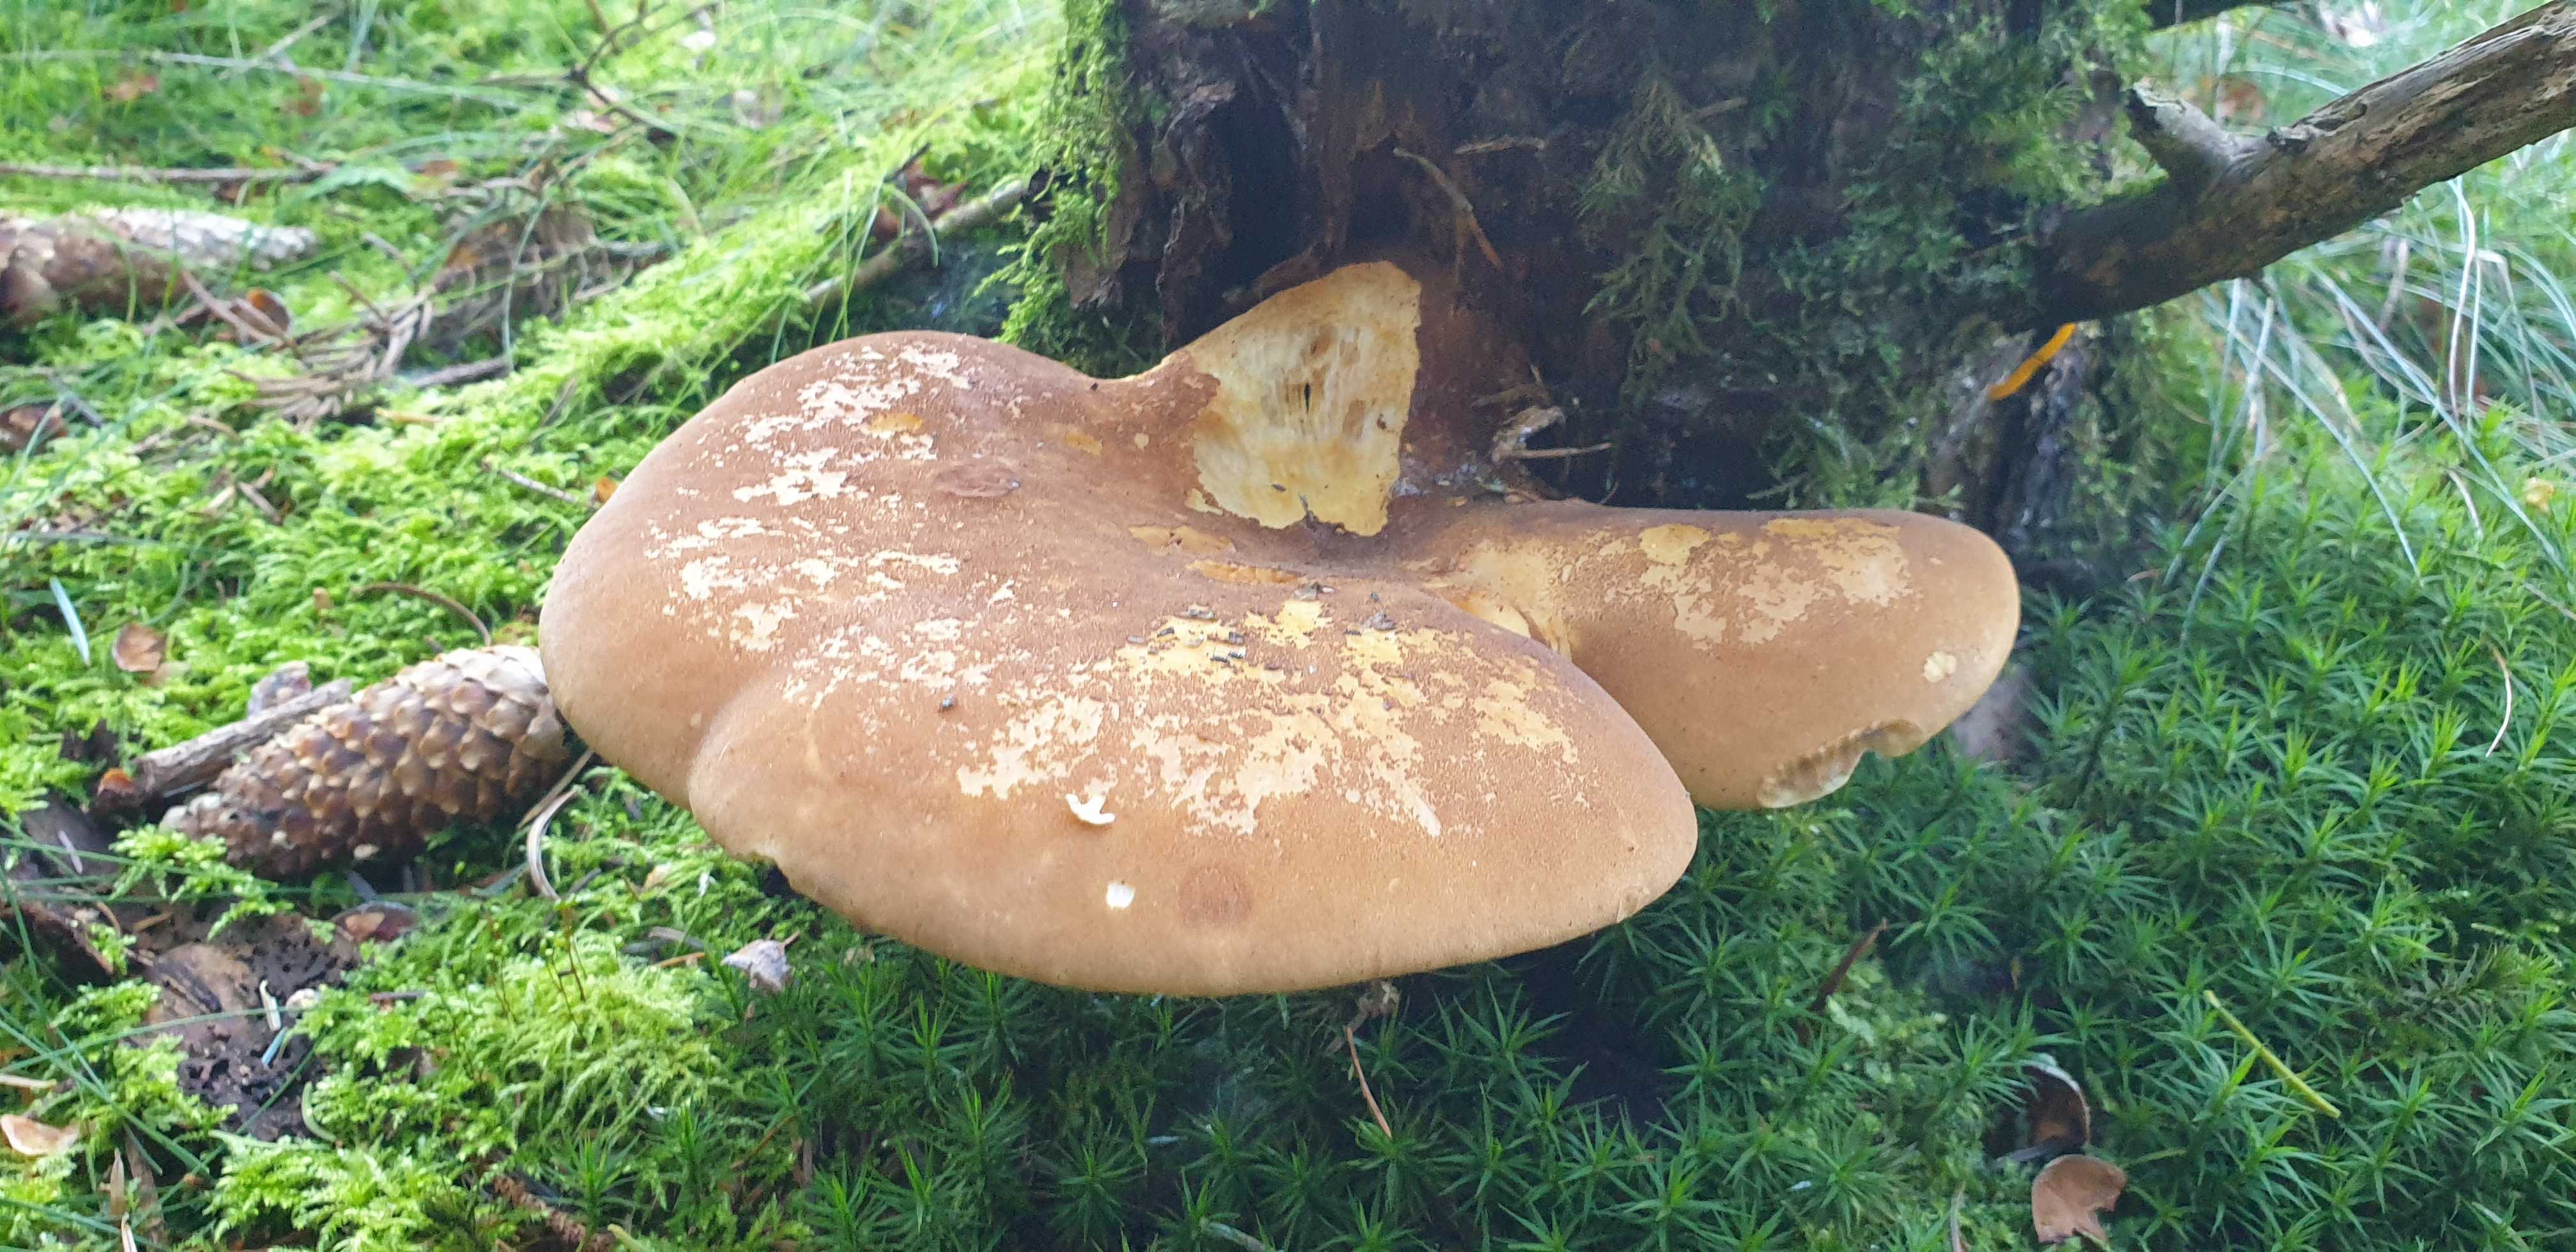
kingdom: Fungi
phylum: Basidiomycota
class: Agaricomycetes
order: Boletales
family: Tapinellaceae
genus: Tapinella
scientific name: Tapinella atrotomentosa
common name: sortfiltet viftesvamp
